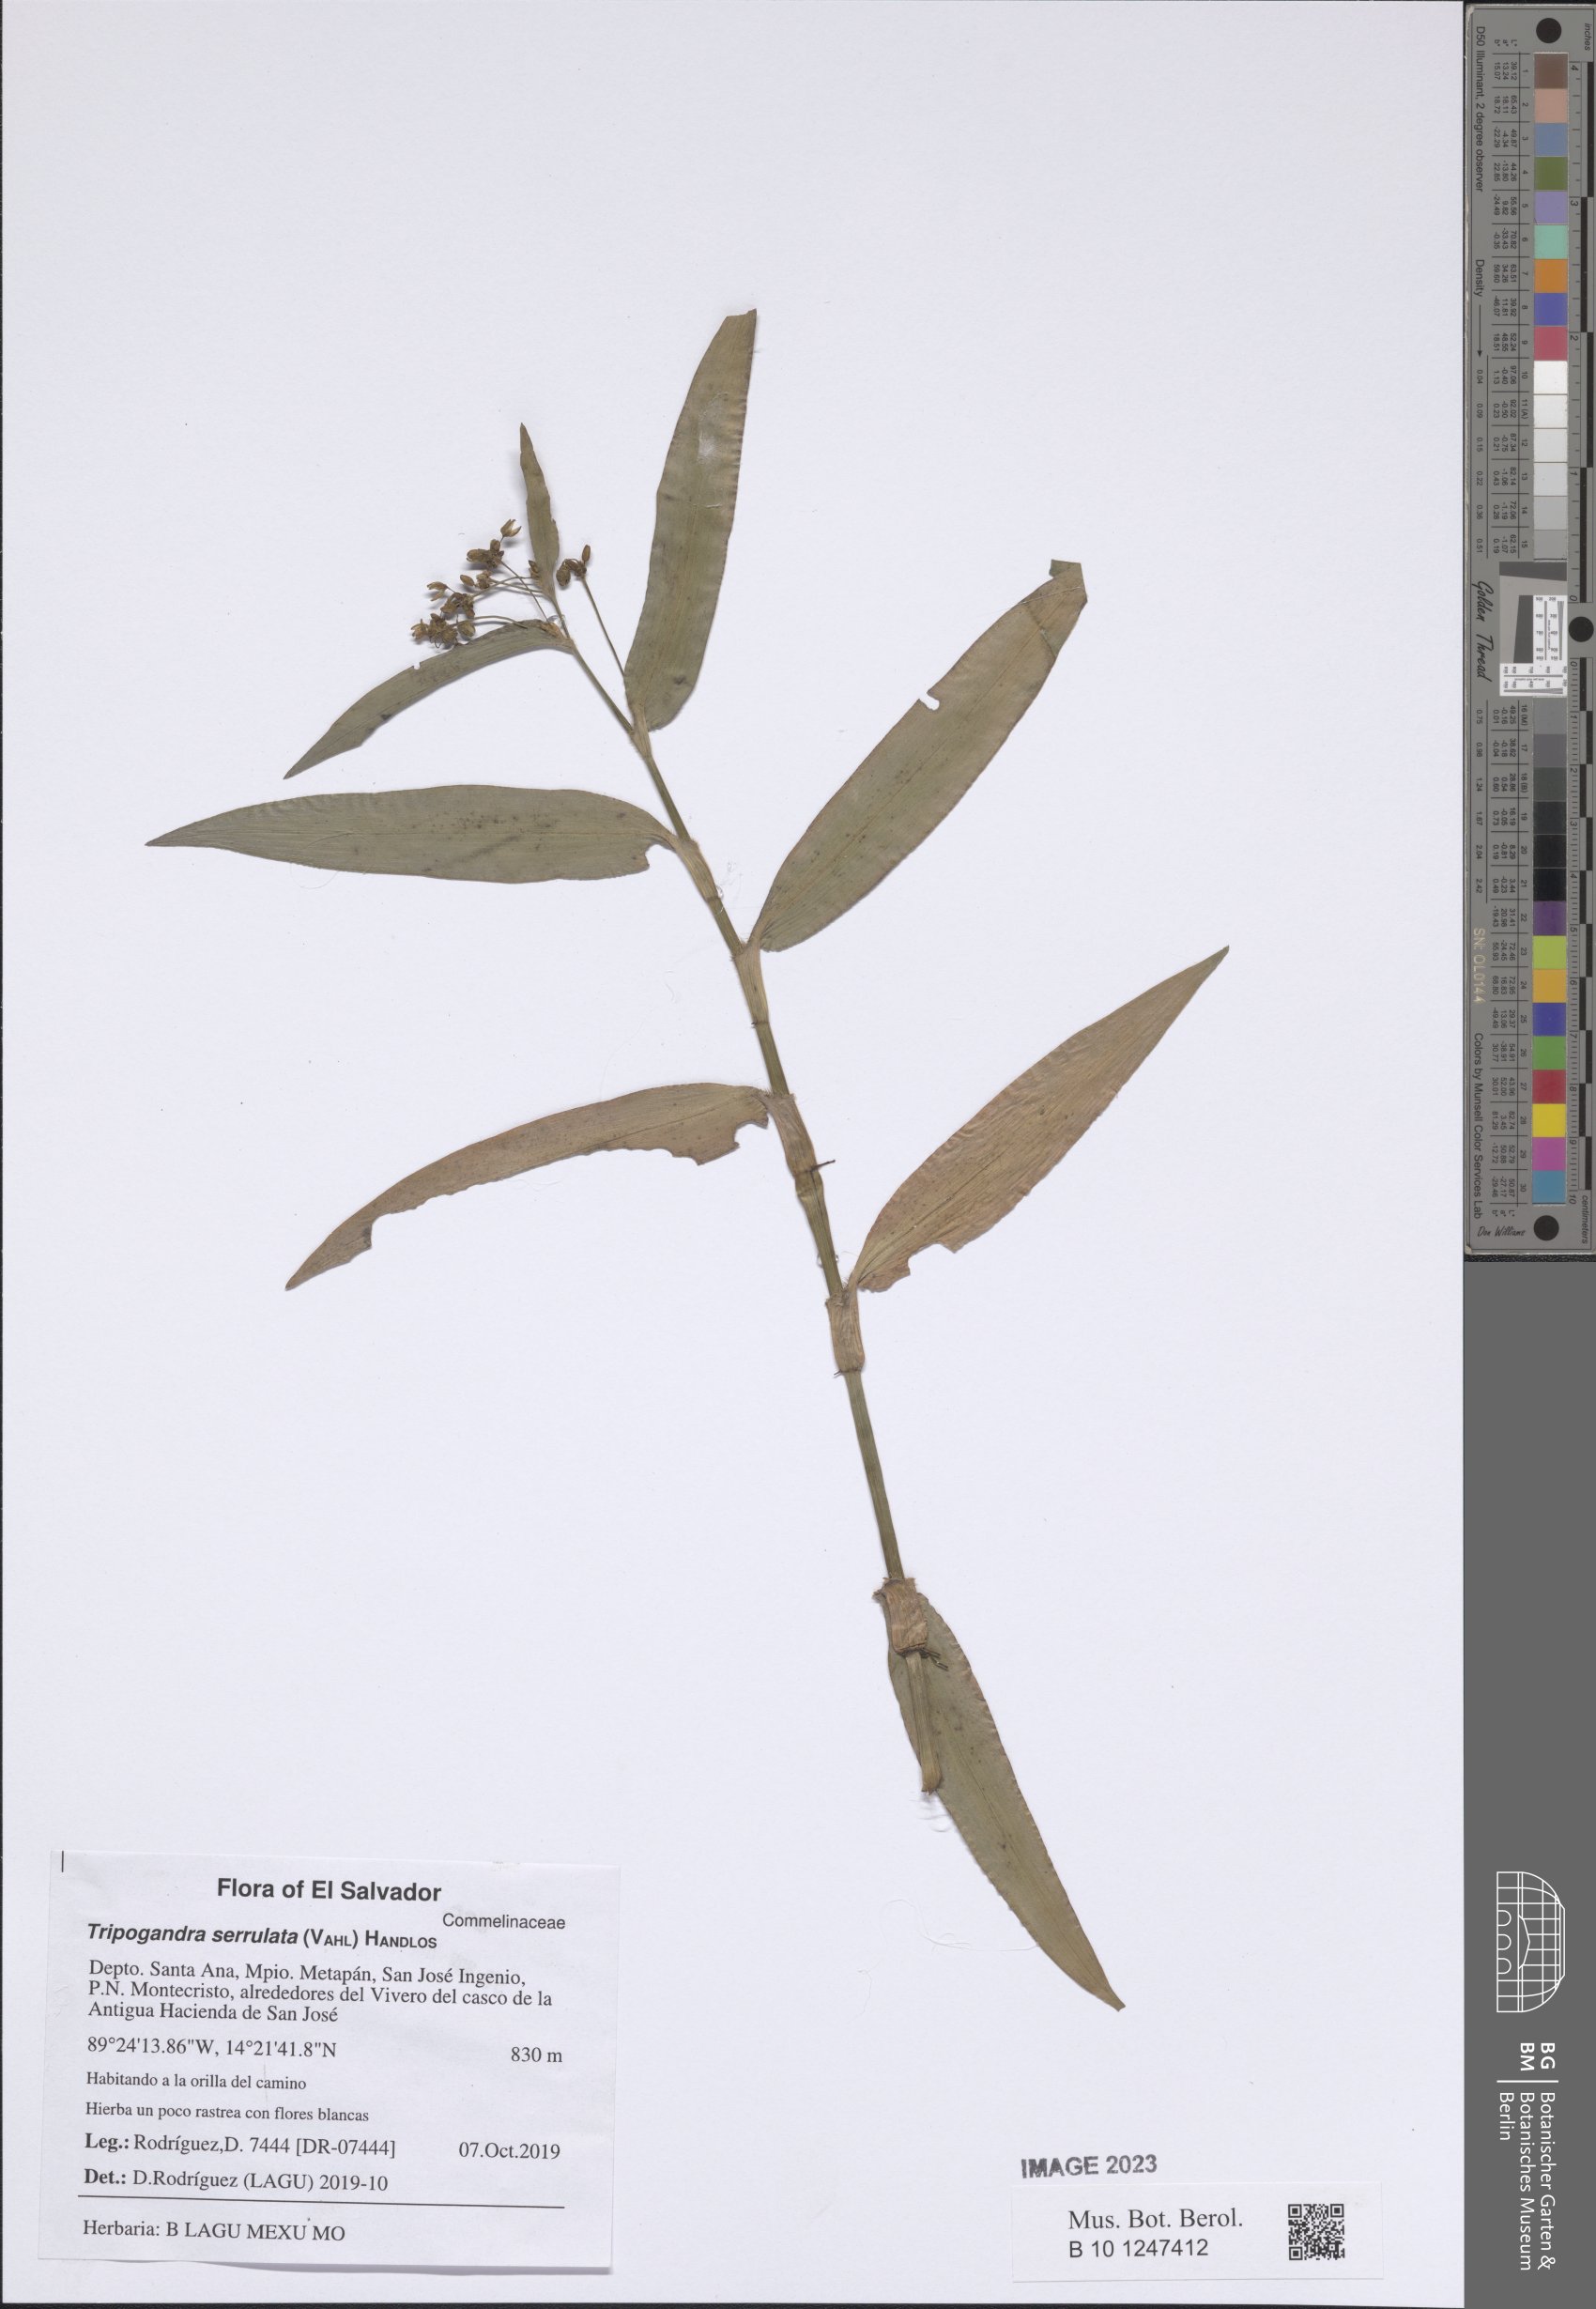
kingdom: Plantae
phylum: Tracheophyta
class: Liliopsida
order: Commelinales
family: Commelinaceae
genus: Callisia
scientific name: Callisia serrulata
